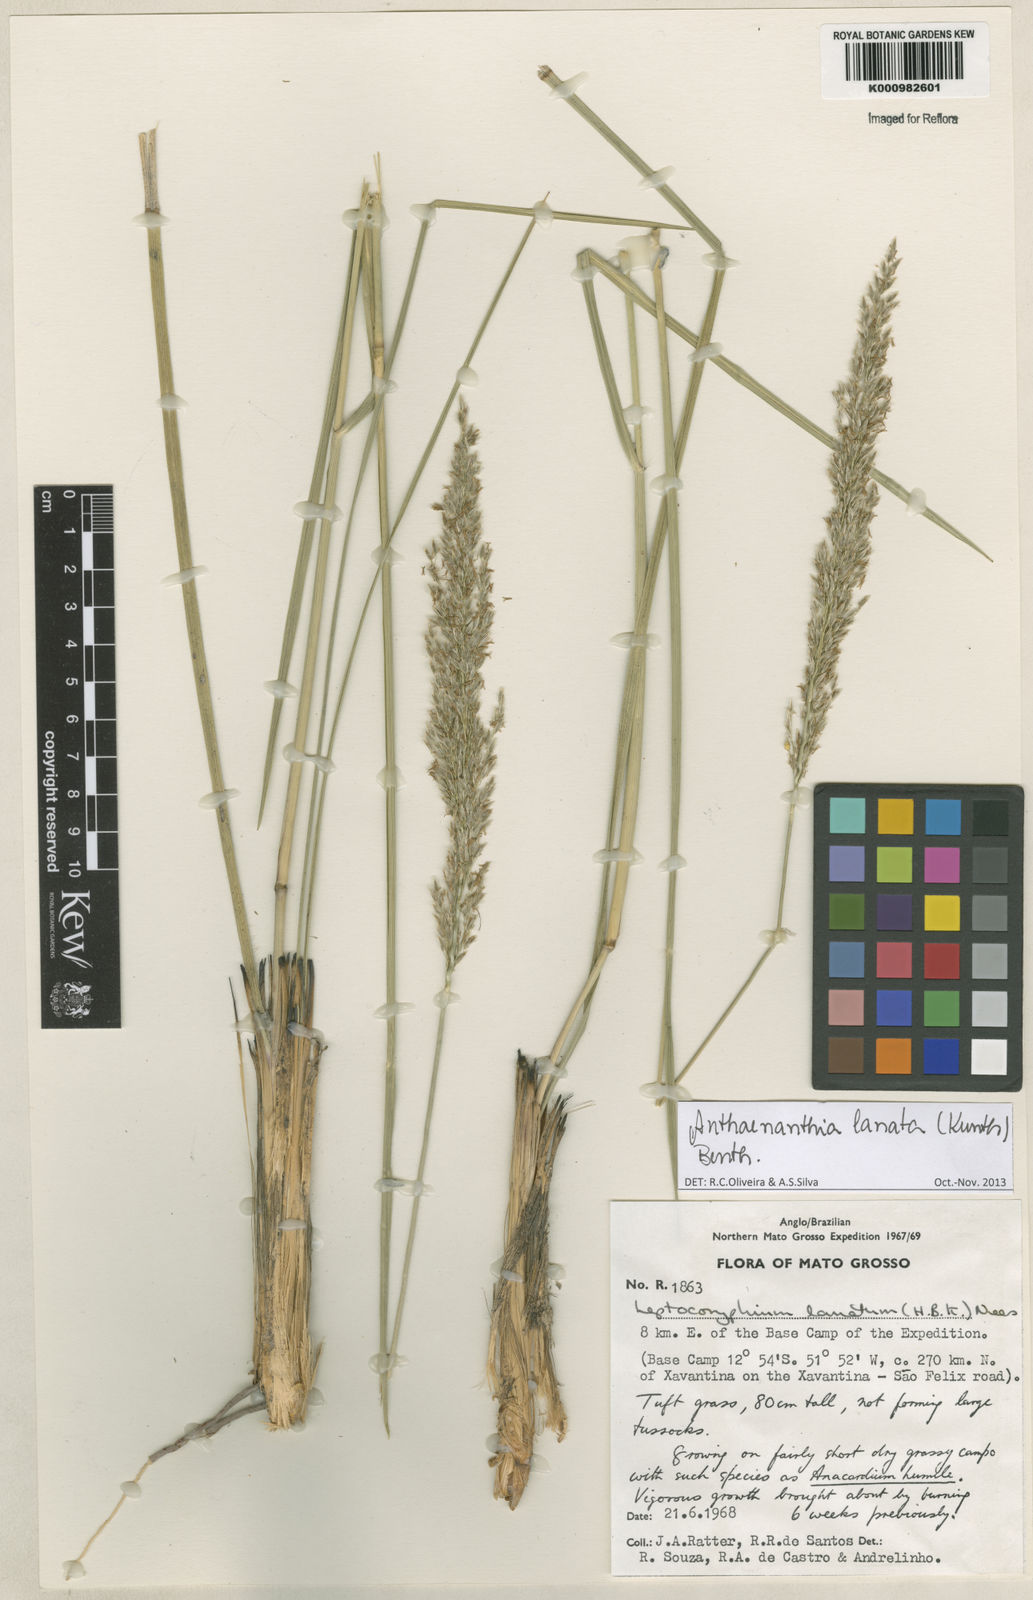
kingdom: Plantae
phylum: Tracheophyta
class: Liliopsida
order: Poales
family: Poaceae
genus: Anthenantia
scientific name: Anthenantia lanata
